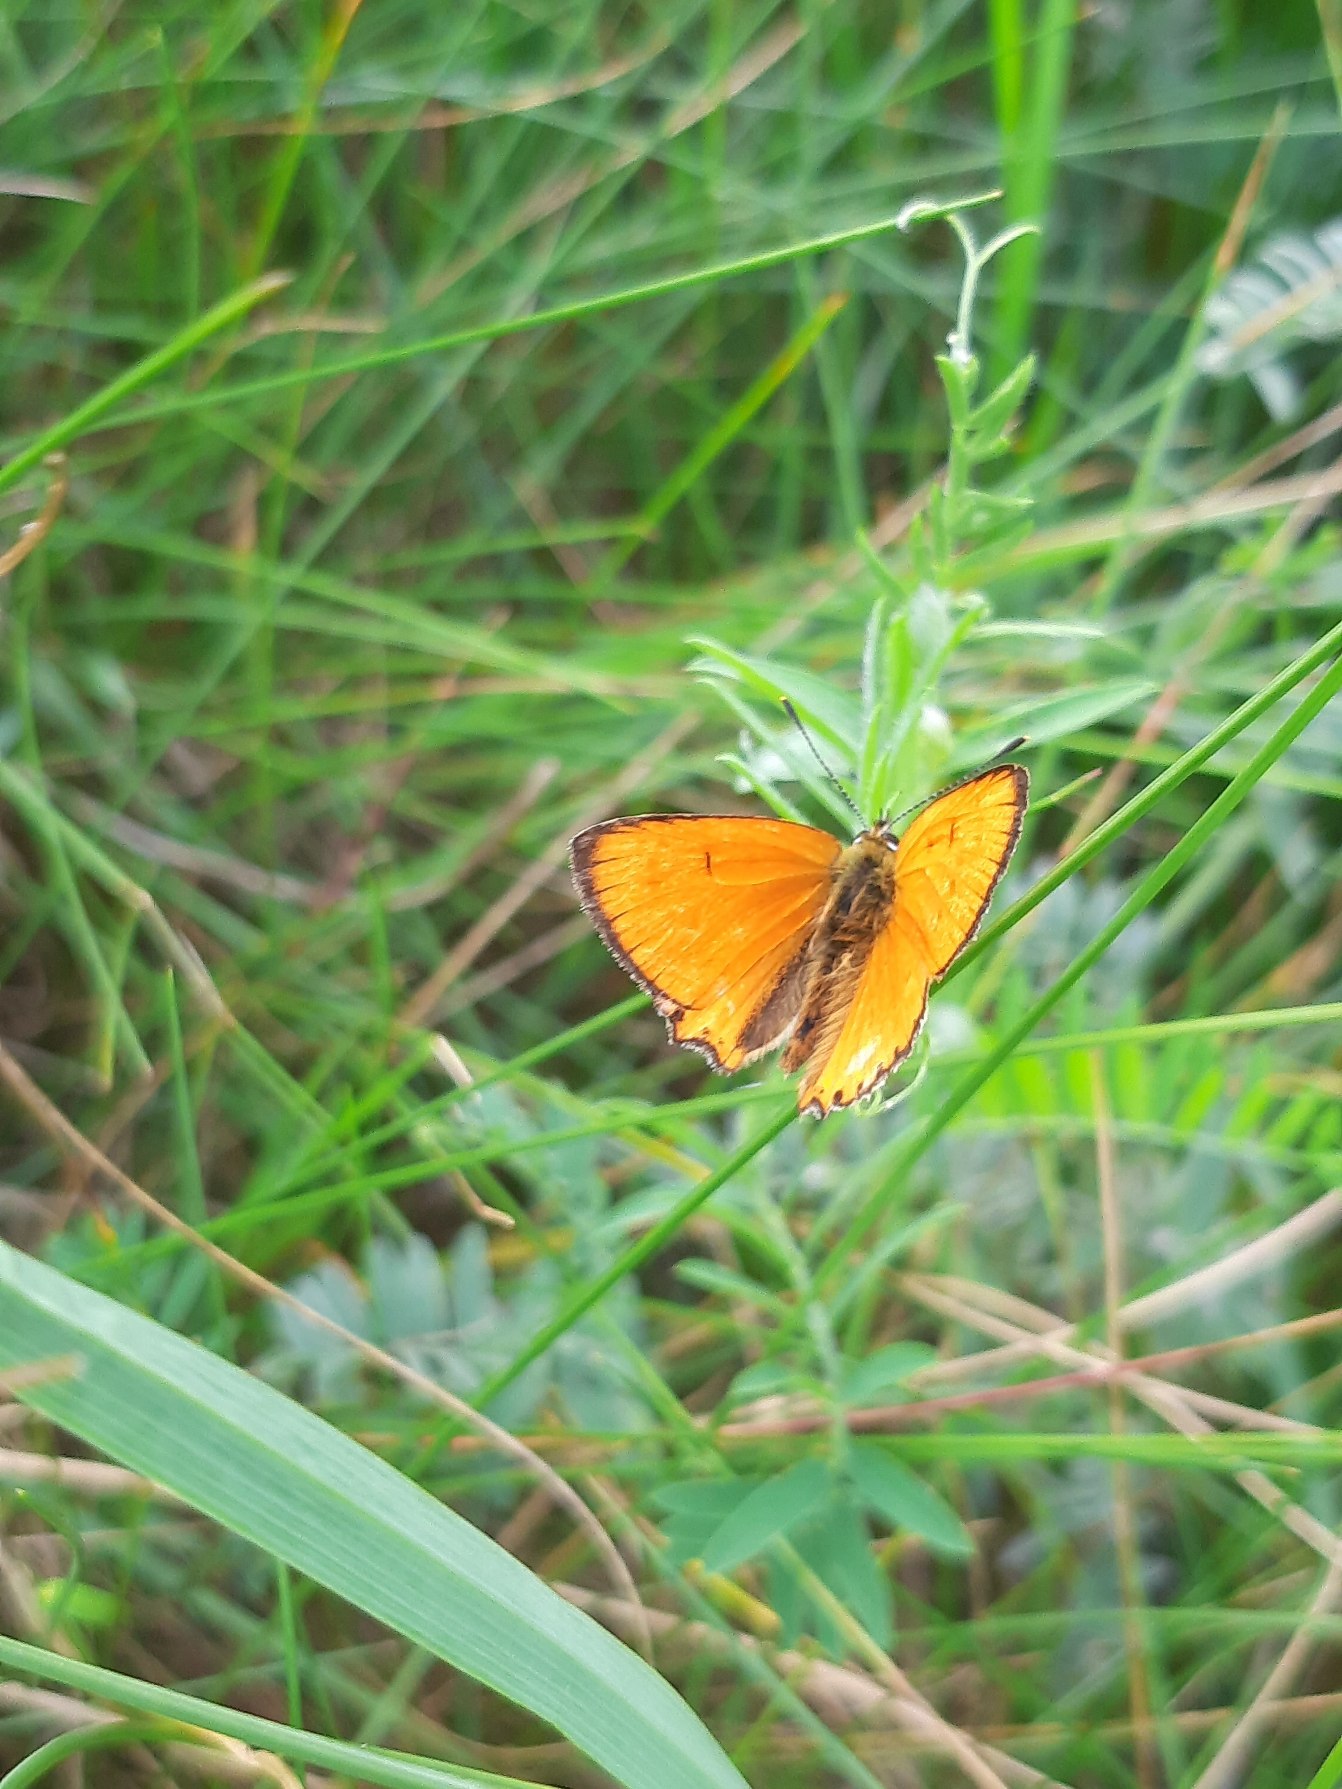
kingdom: Animalia
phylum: Arthropoda
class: Insecta
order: Lepidoptera
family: Lycaenidae
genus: Lycaena
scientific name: Lycaena virgaureae
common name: Dukatsommerfugl
